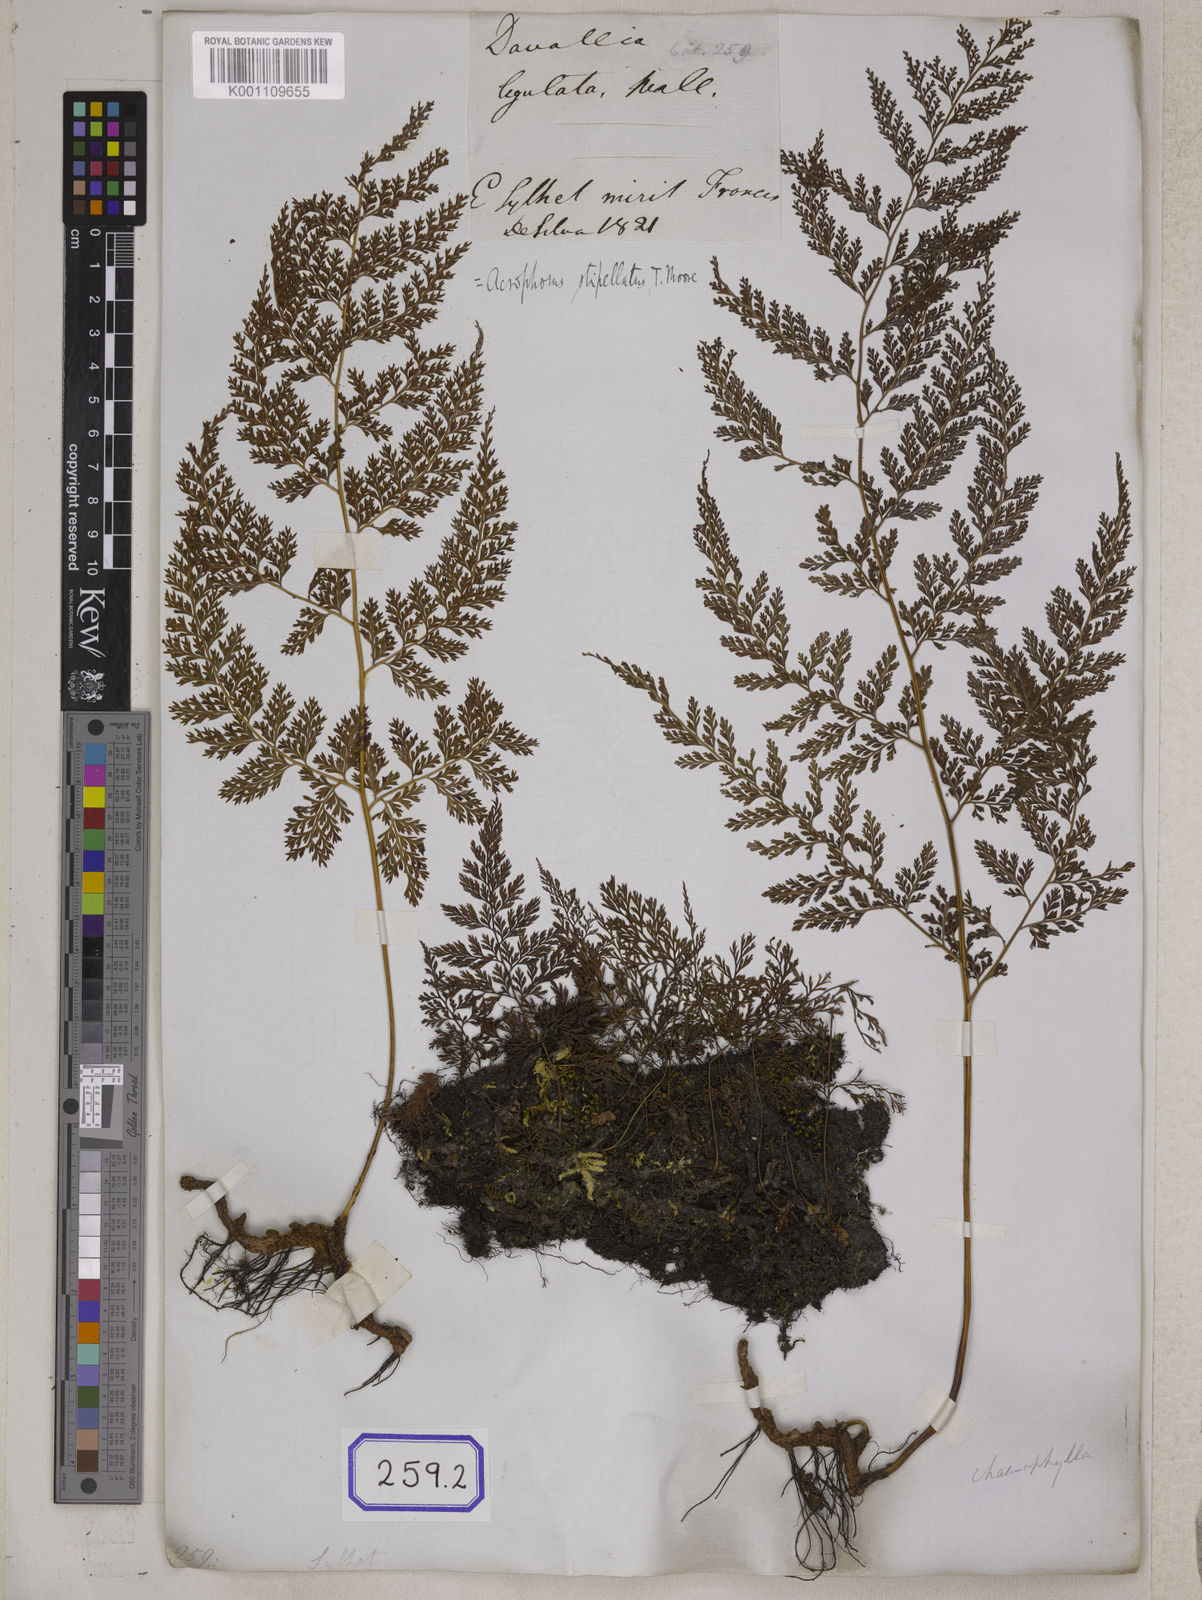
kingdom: Plantae
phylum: Tracheophyta
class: Polypodiopsida
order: Polypodiales
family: Davalliaceae
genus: Davallodes
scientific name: Davallodes pulchra
